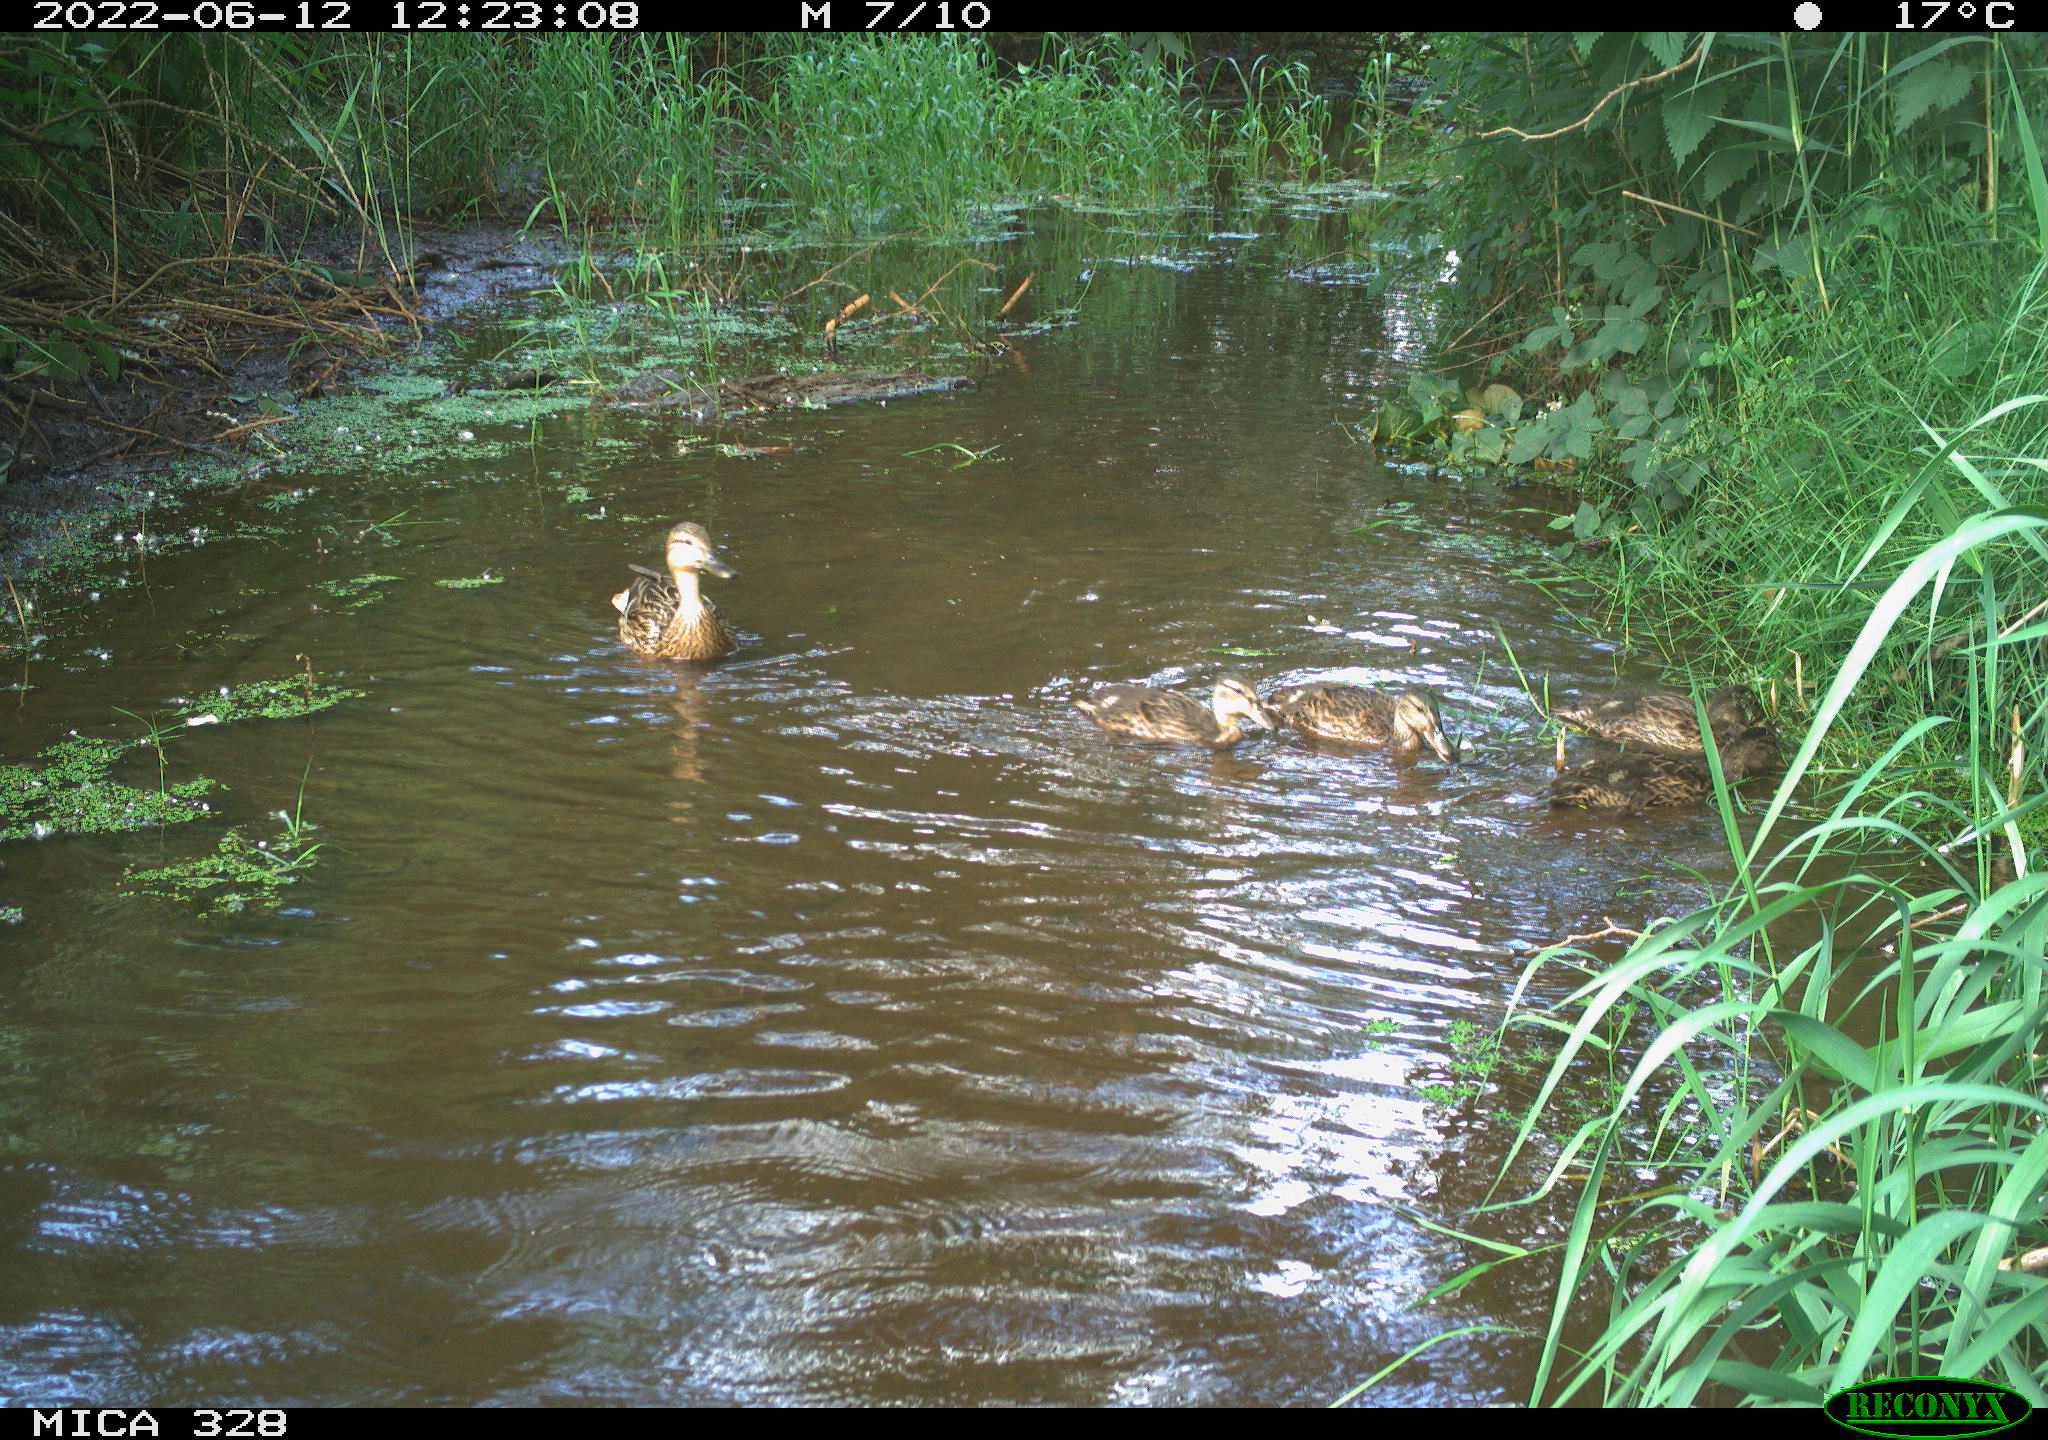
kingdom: Animalia
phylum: Chordata
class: Aves
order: Anseriformes
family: Anatidae
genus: Anas
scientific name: Anas
